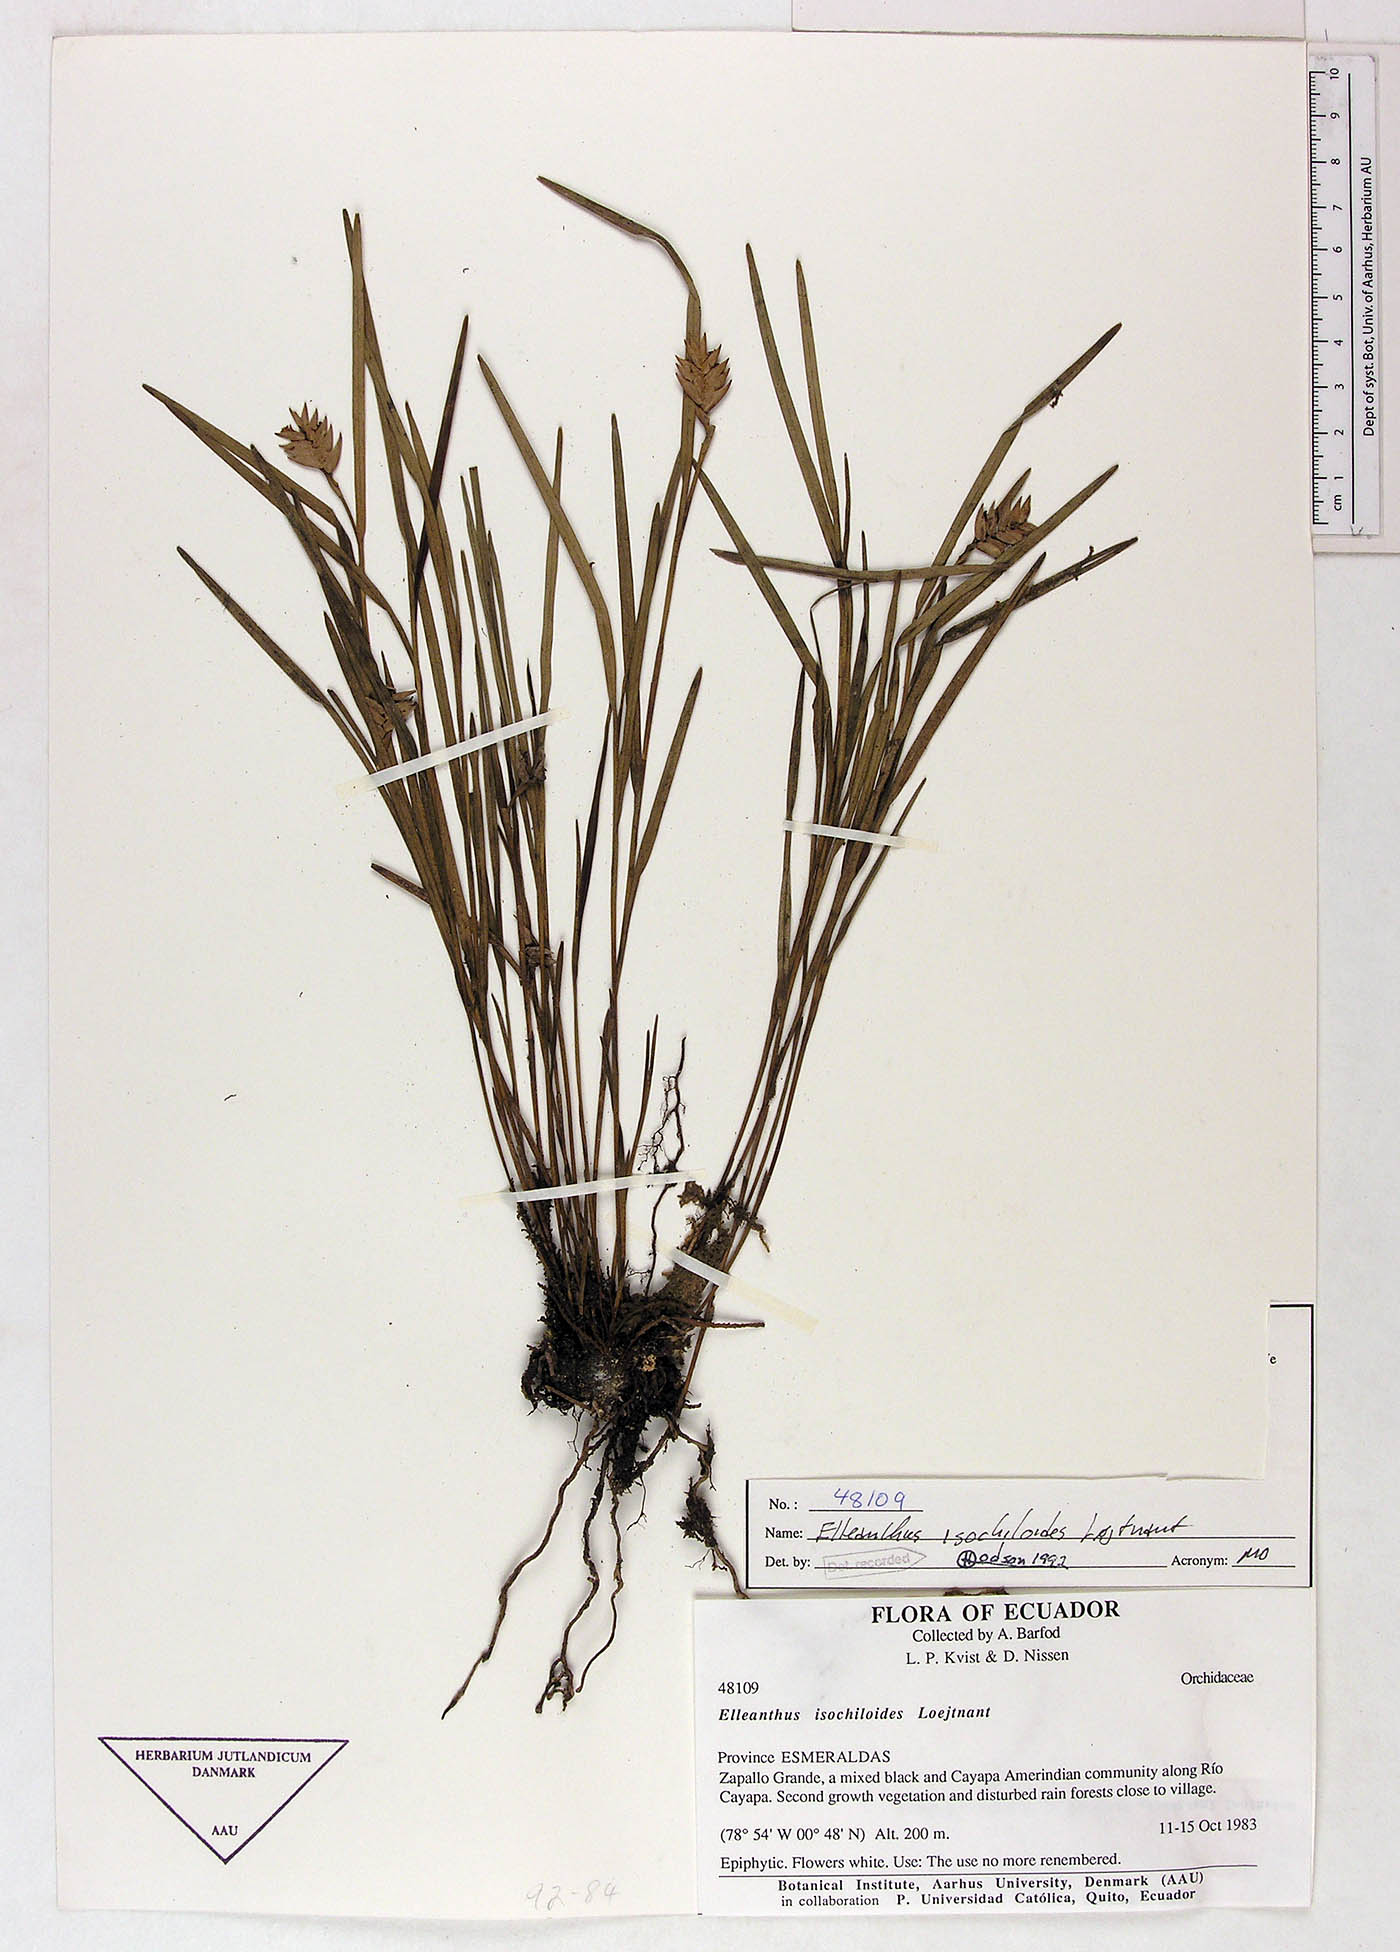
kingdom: Plantae
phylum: Tracheophyta
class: Liliopsida
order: Asparagales
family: Orchidaceae
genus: Elleanthus
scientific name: Elleanthus isochiloides
